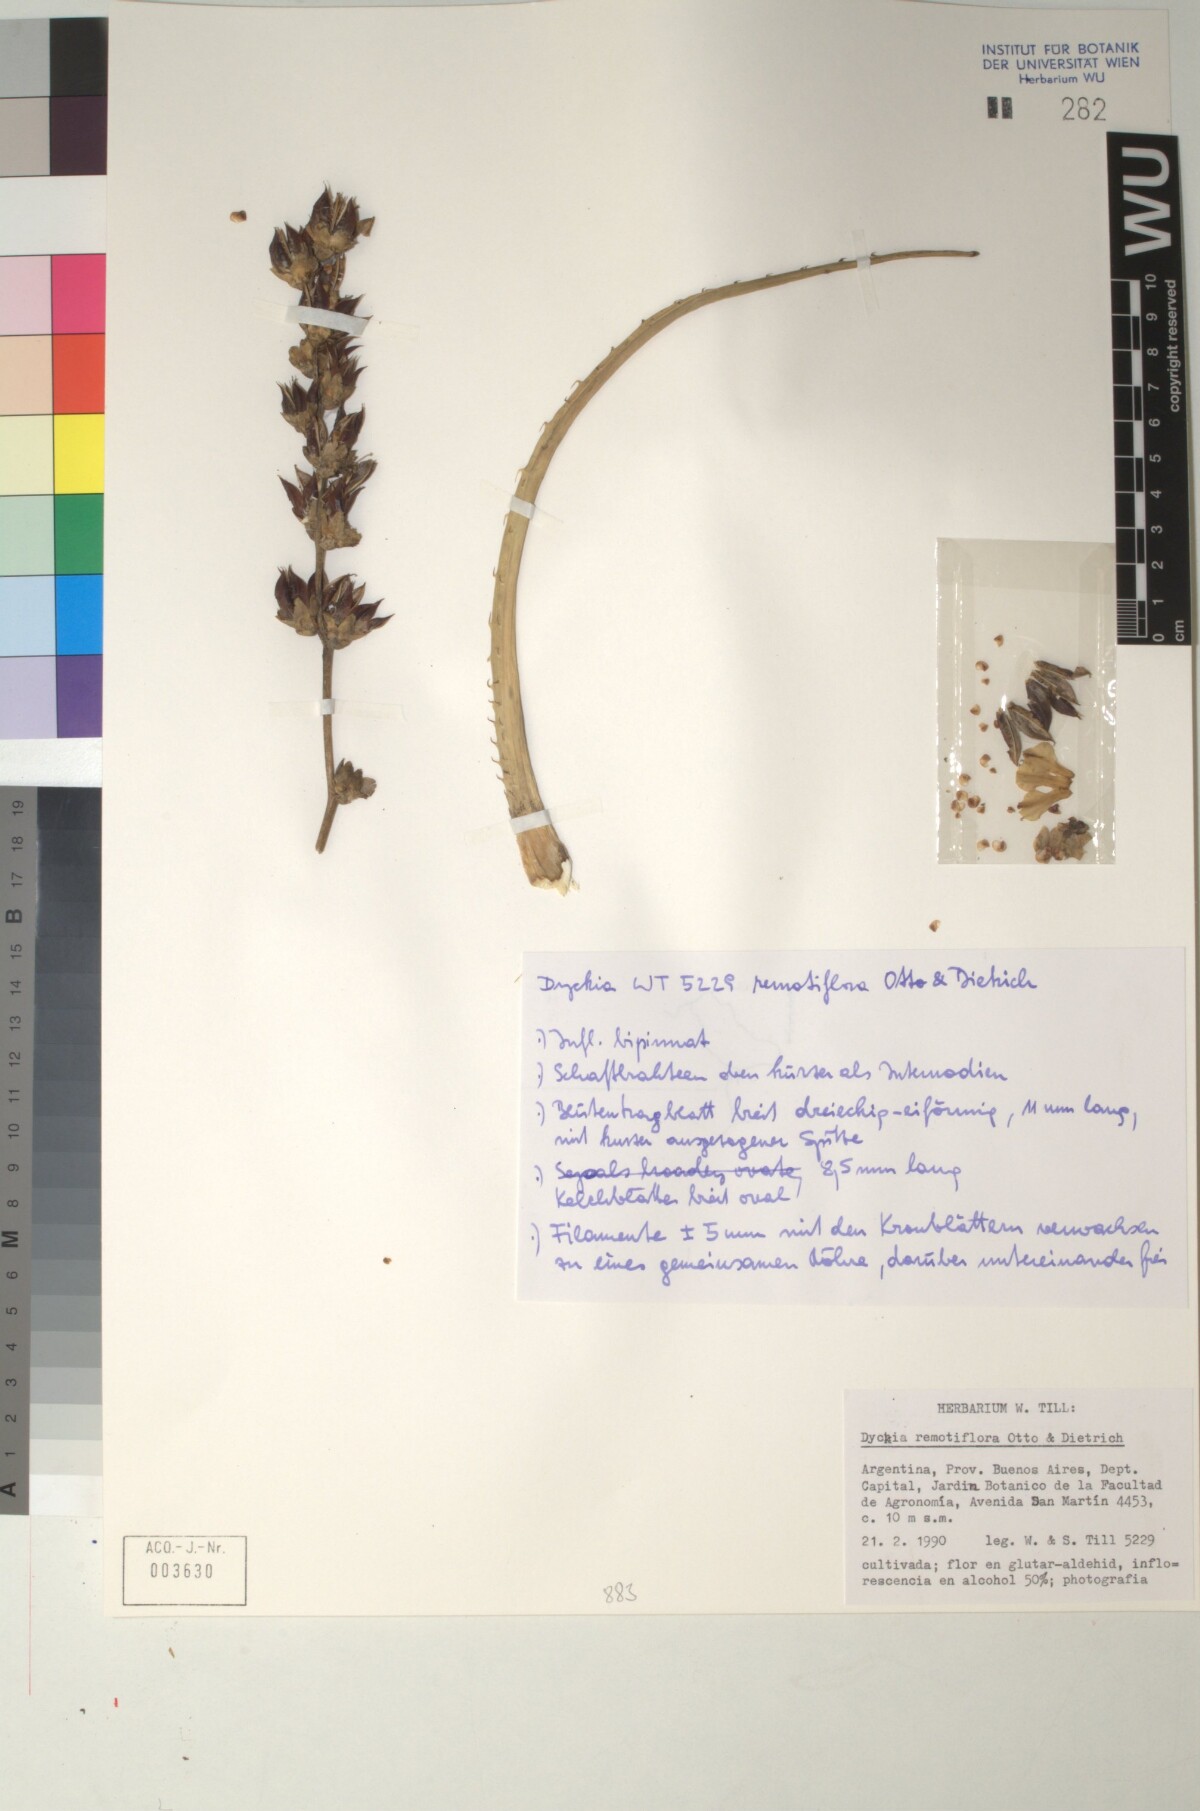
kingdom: Plantae
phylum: Tracheophyta
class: Liliopsida
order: Poales
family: Bromeliaceae
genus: Dyckia
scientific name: Dyckia remotiflora
